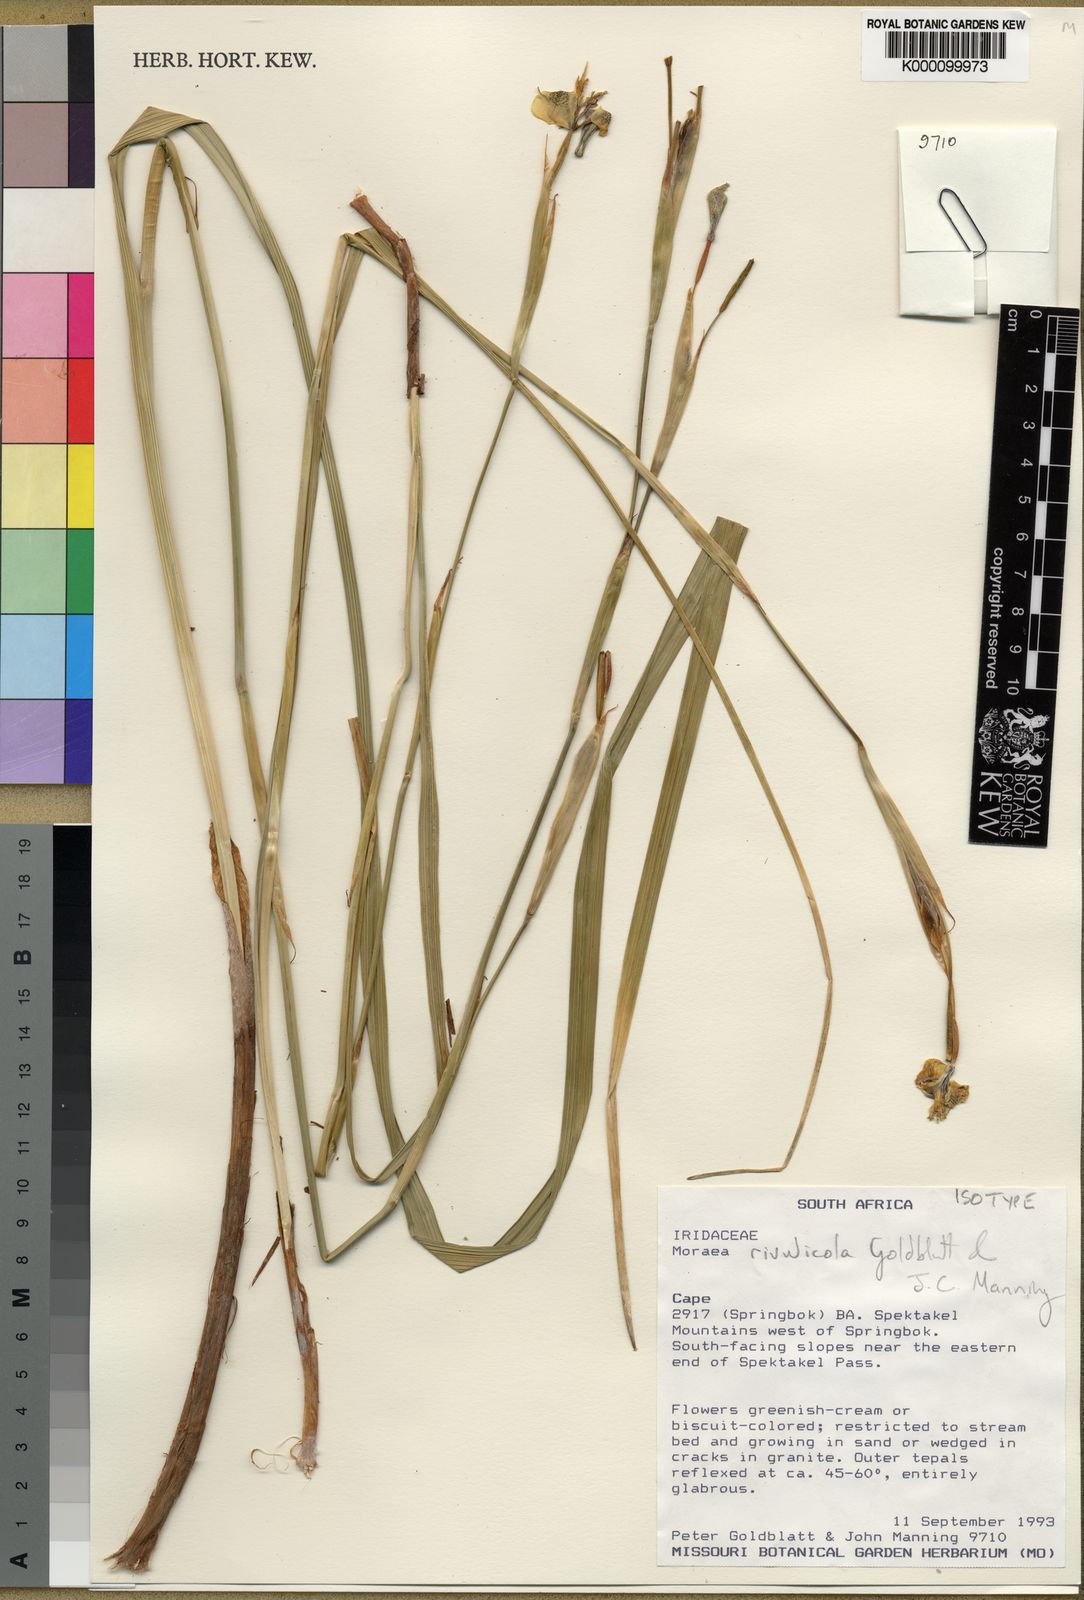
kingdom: Plantae
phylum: Tracheophyta
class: Liliopsida
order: Asparagales
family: Iridaceae
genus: Moraea
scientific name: Moraea rivulicola
